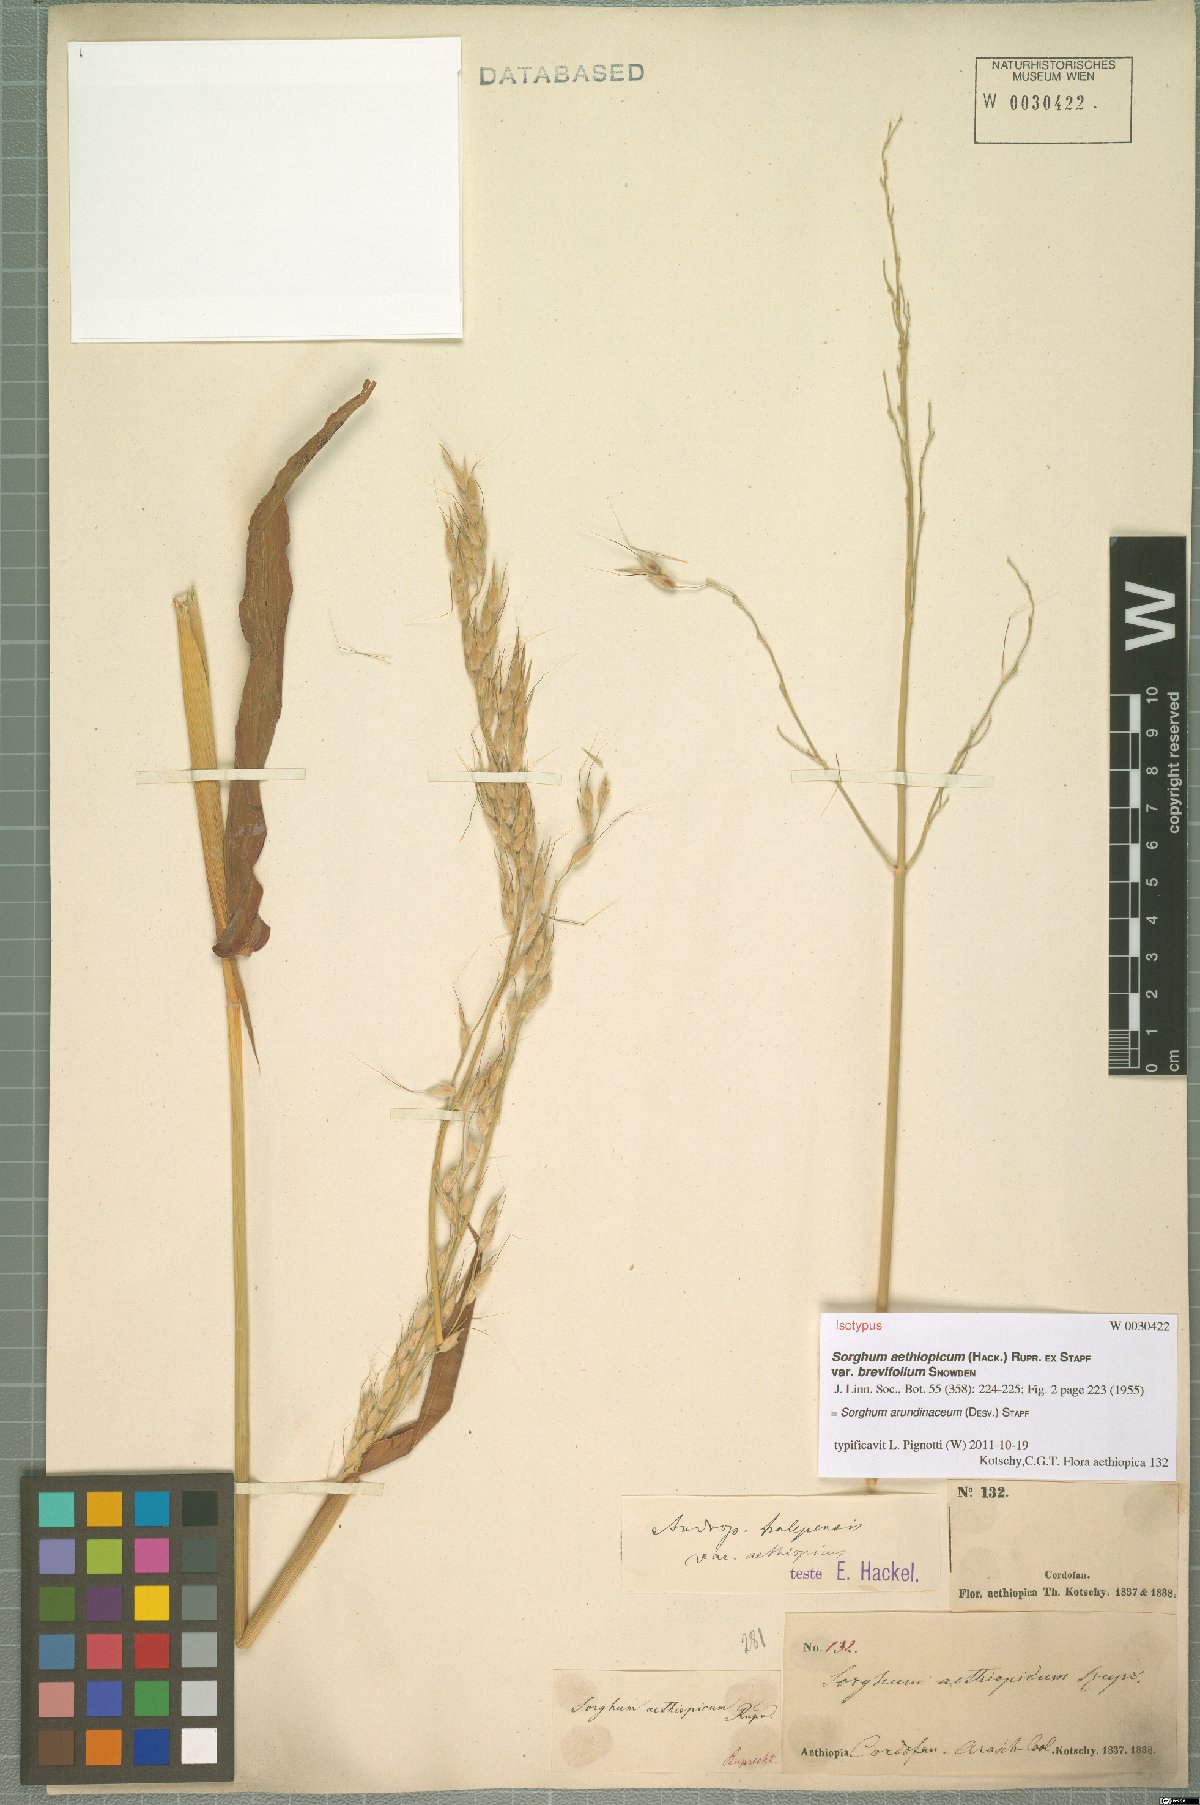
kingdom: Plantae
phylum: Tracheophyta
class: Liliopsida
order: Poales
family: Poaceae
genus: Sorghum
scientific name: Sorghum arundinaceum
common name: Sorghum
